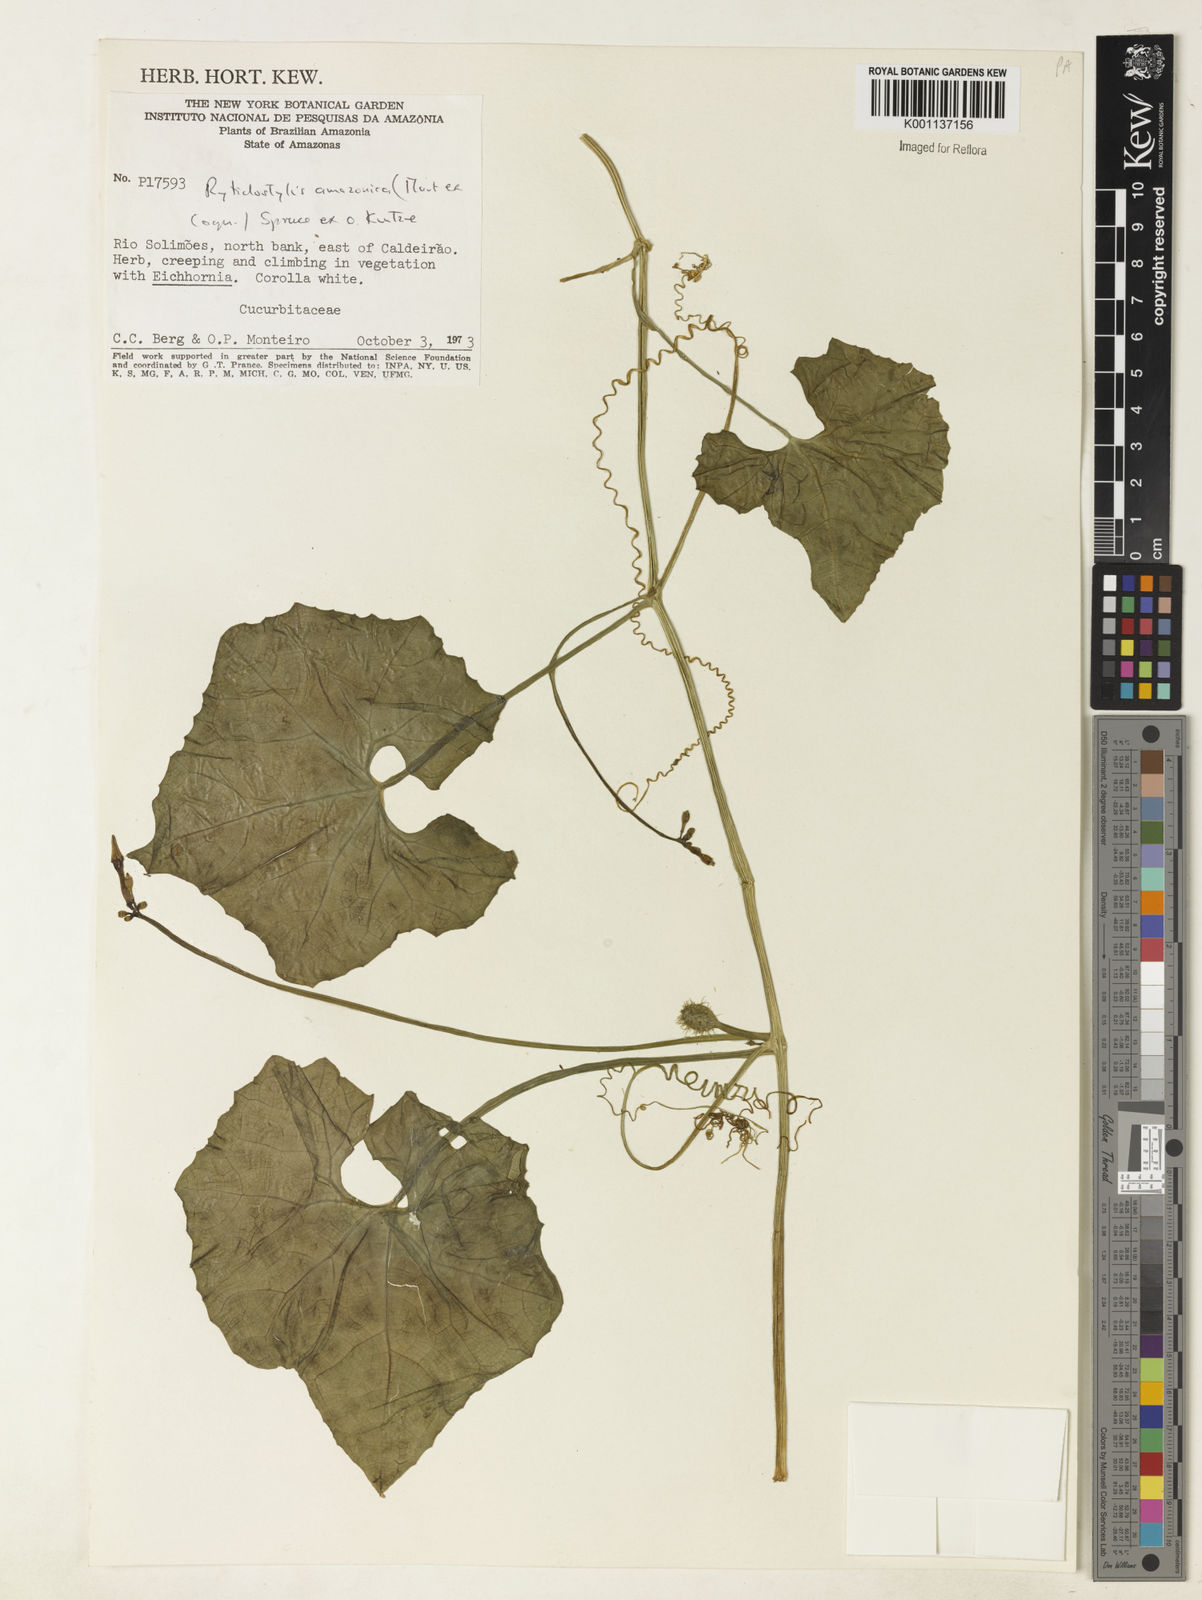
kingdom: Plantae
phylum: Tracheophyta
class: Magnoliopsida
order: Cucurbitales
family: Cucurbitaceae
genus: Cyclanthera
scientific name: Cyclanthera carthagenensis
